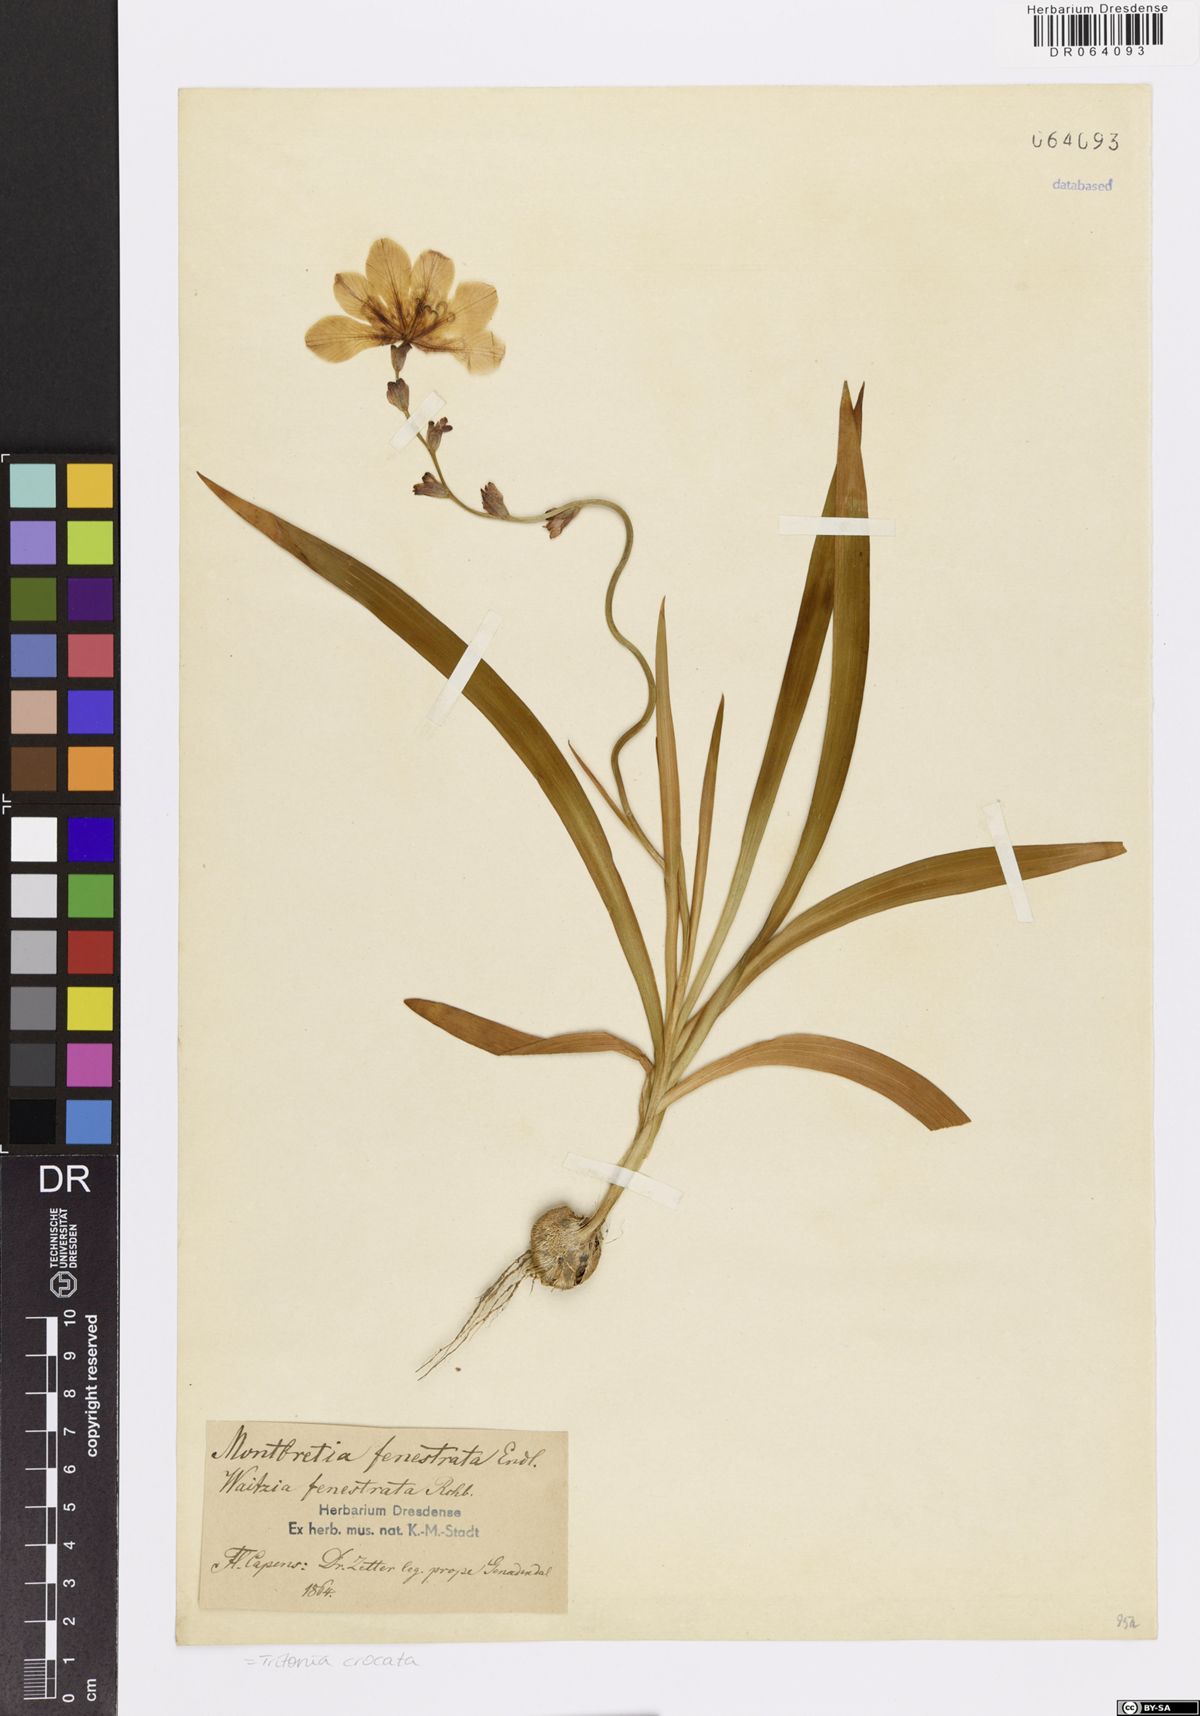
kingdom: Plantae
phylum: Tracheophyta
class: Liliopsida
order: Asparagales
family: Iridaceae
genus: Tritonia
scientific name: Tritonia crocata
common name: Flame-freesia
